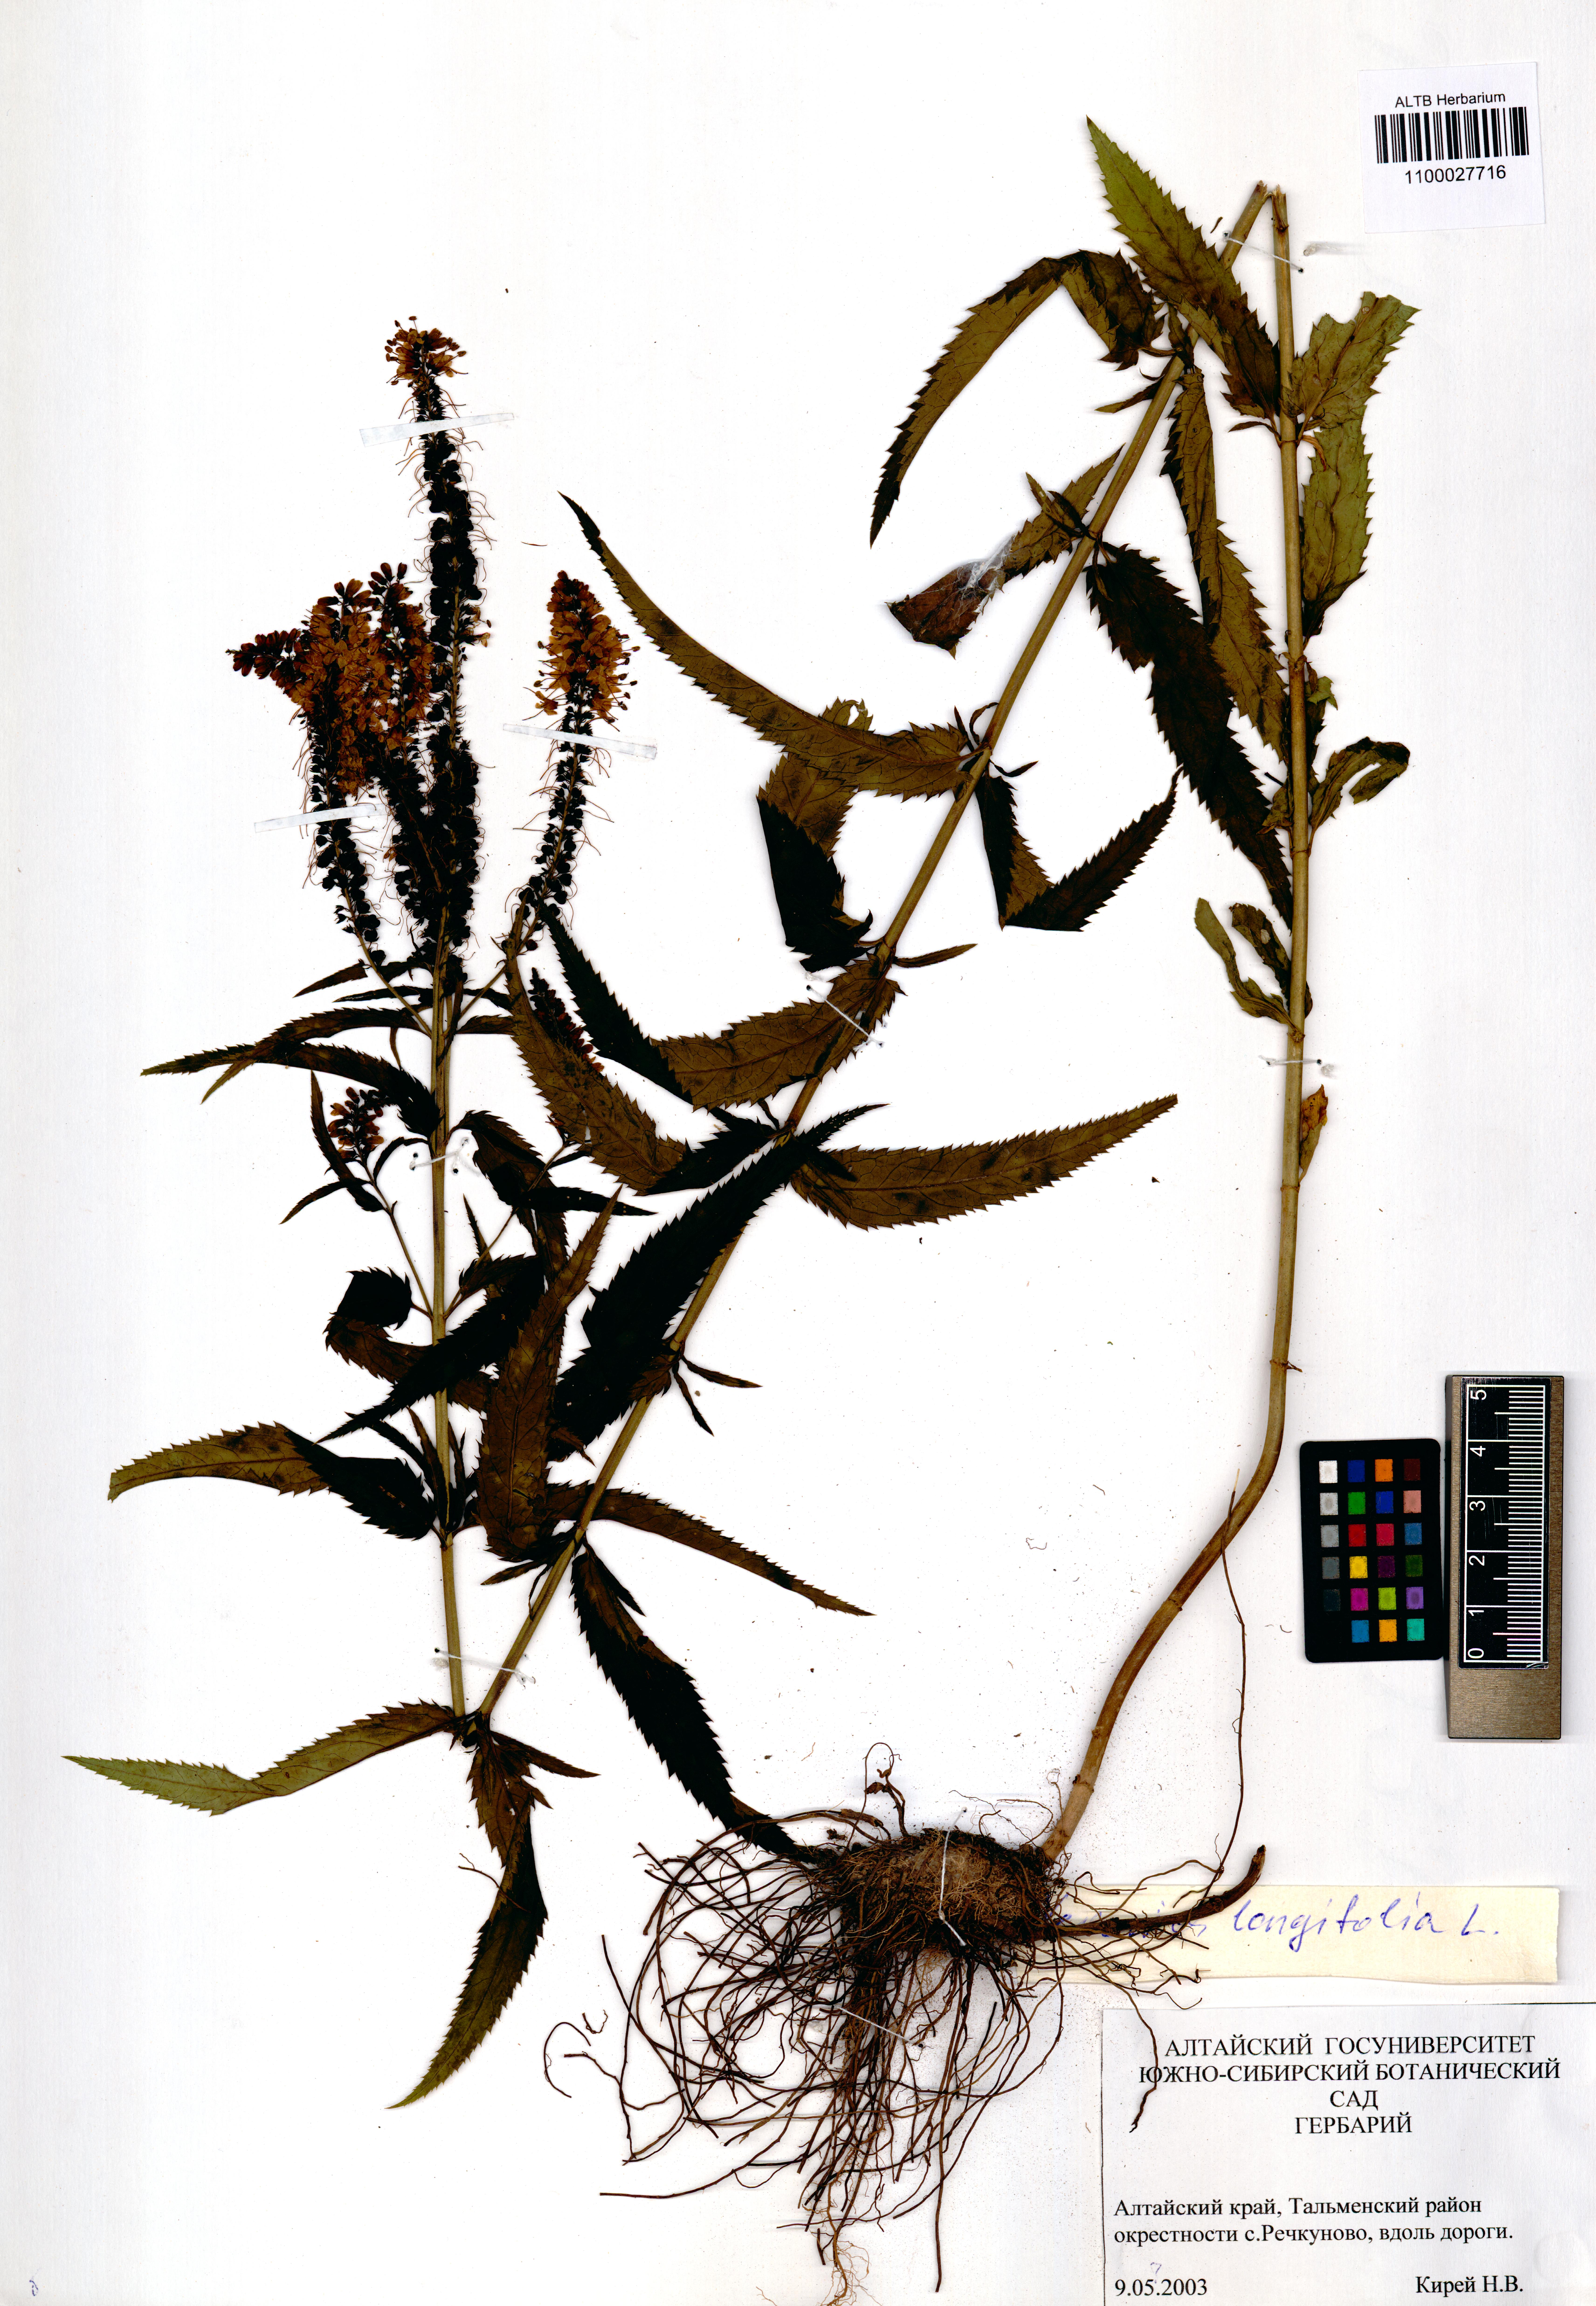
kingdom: Plantae
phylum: Tracheophyta
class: Magnoliopsida
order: Lamiales
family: Plantaginaceae
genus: Veronica
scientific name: Veronica longifolia
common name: Garden speedwell
